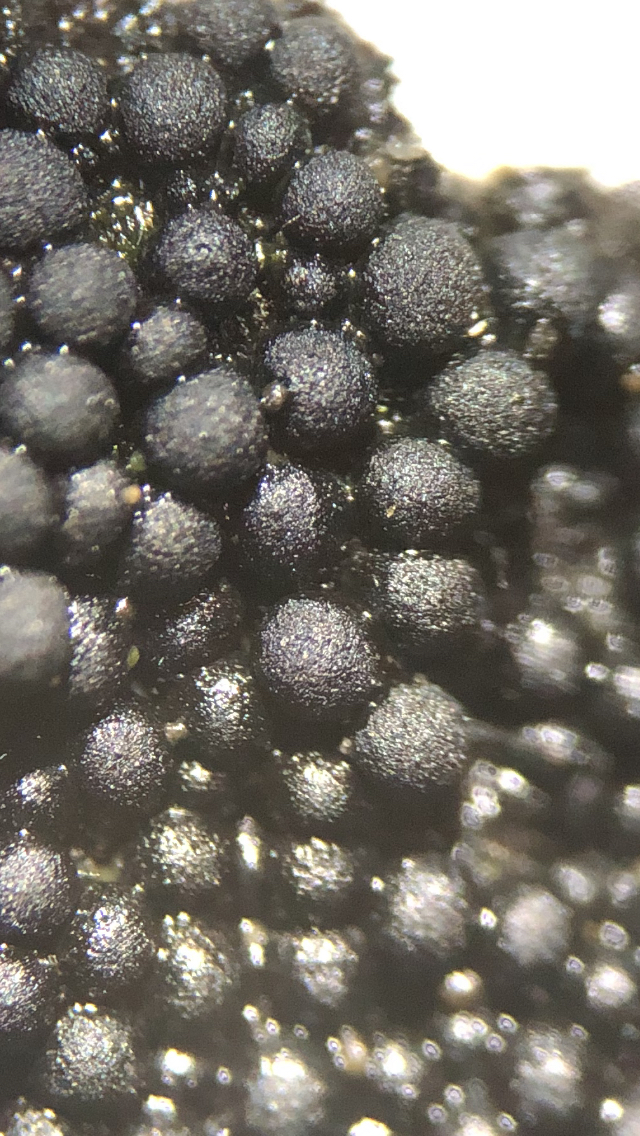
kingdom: Fungi
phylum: Ascomycota
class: Sordariomycetes
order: Sordariales
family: Helminthosphaeriaceae
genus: Ruzenia
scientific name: Ruzenia spermoides
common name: glat børstekerne
